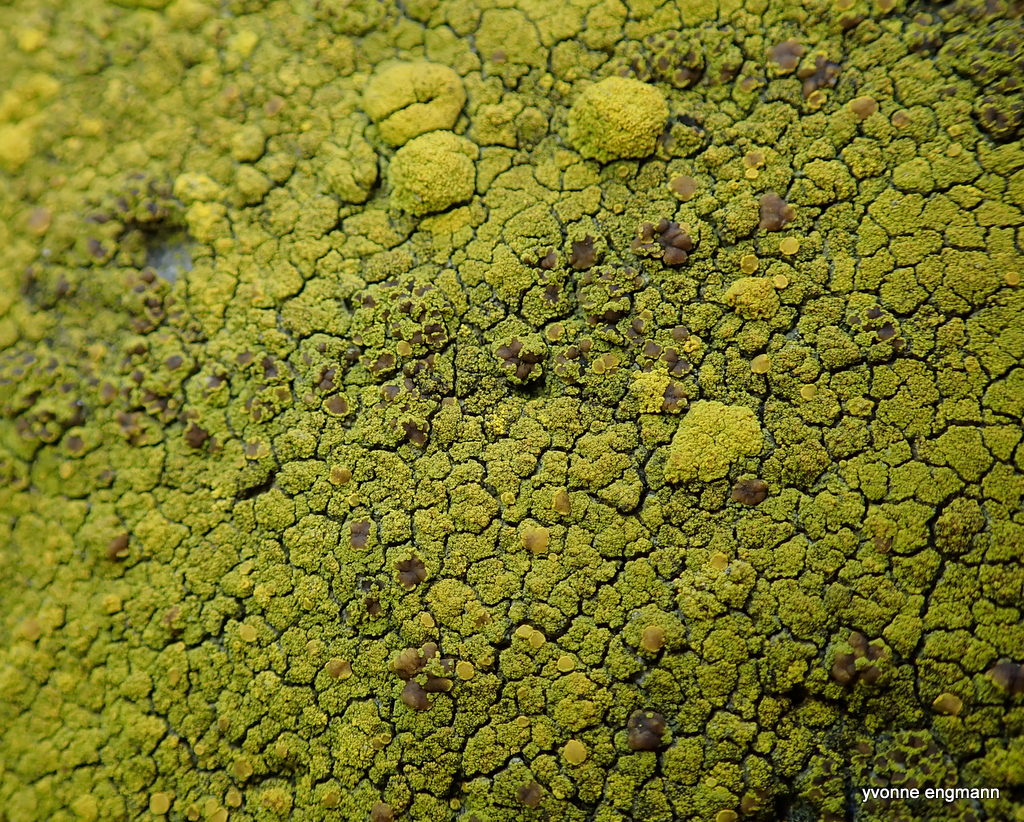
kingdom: Fungi
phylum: Ascomycota
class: Candelariomycetes
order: Candelariales
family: Candelariaceae
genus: Candelariella
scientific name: Candelariella vitellina
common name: almindelig æggeblommelav
